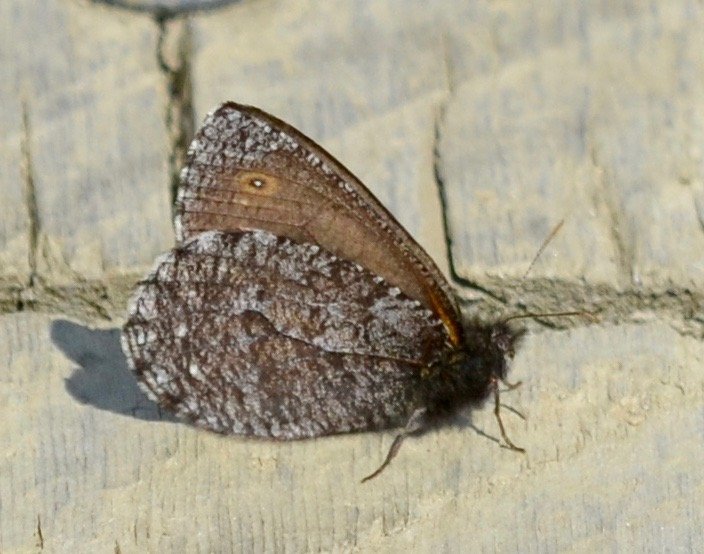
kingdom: Animalia
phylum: Arthropoda
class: Insecta
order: Lepidoptera
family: Nymphalidae
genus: Oeneis
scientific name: Oeneis jutta
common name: Jutta Arctic
